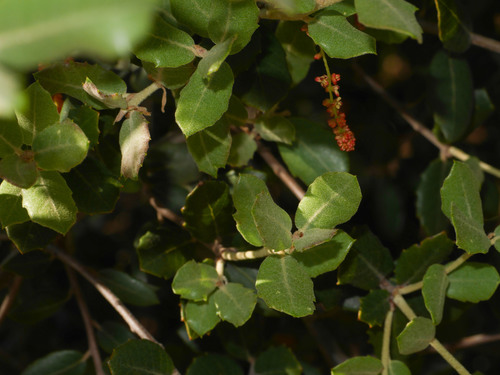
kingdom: Plantae
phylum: Tracheophyta
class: Magnoliopsida
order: Fagales
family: Fagaceae
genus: Quercus
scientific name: Quercus rotundifolia
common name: Holm oak
